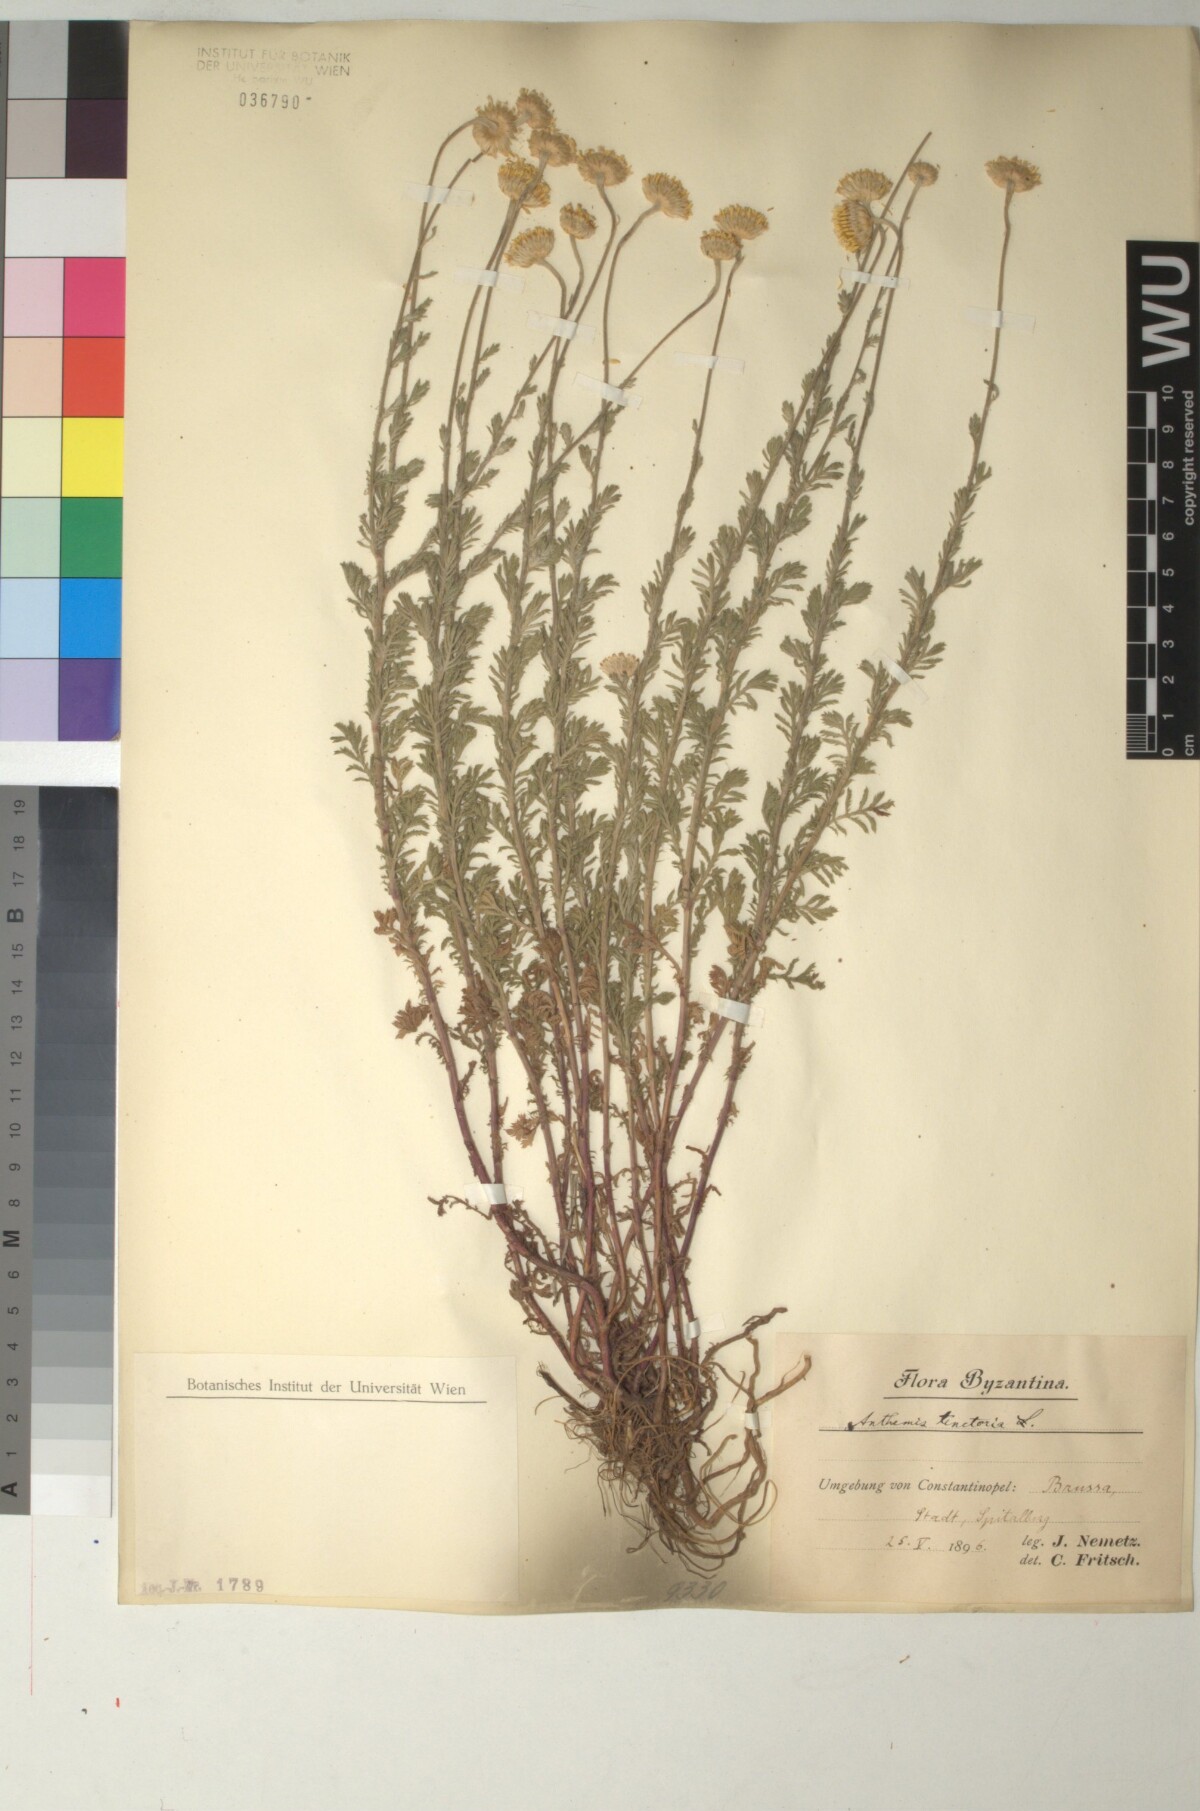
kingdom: Plantae
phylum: Tracheophyta
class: Magnoliopsida
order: Asterales
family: Asteraceae
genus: Cota
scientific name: Cota tinctoria
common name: Golden chamomile
